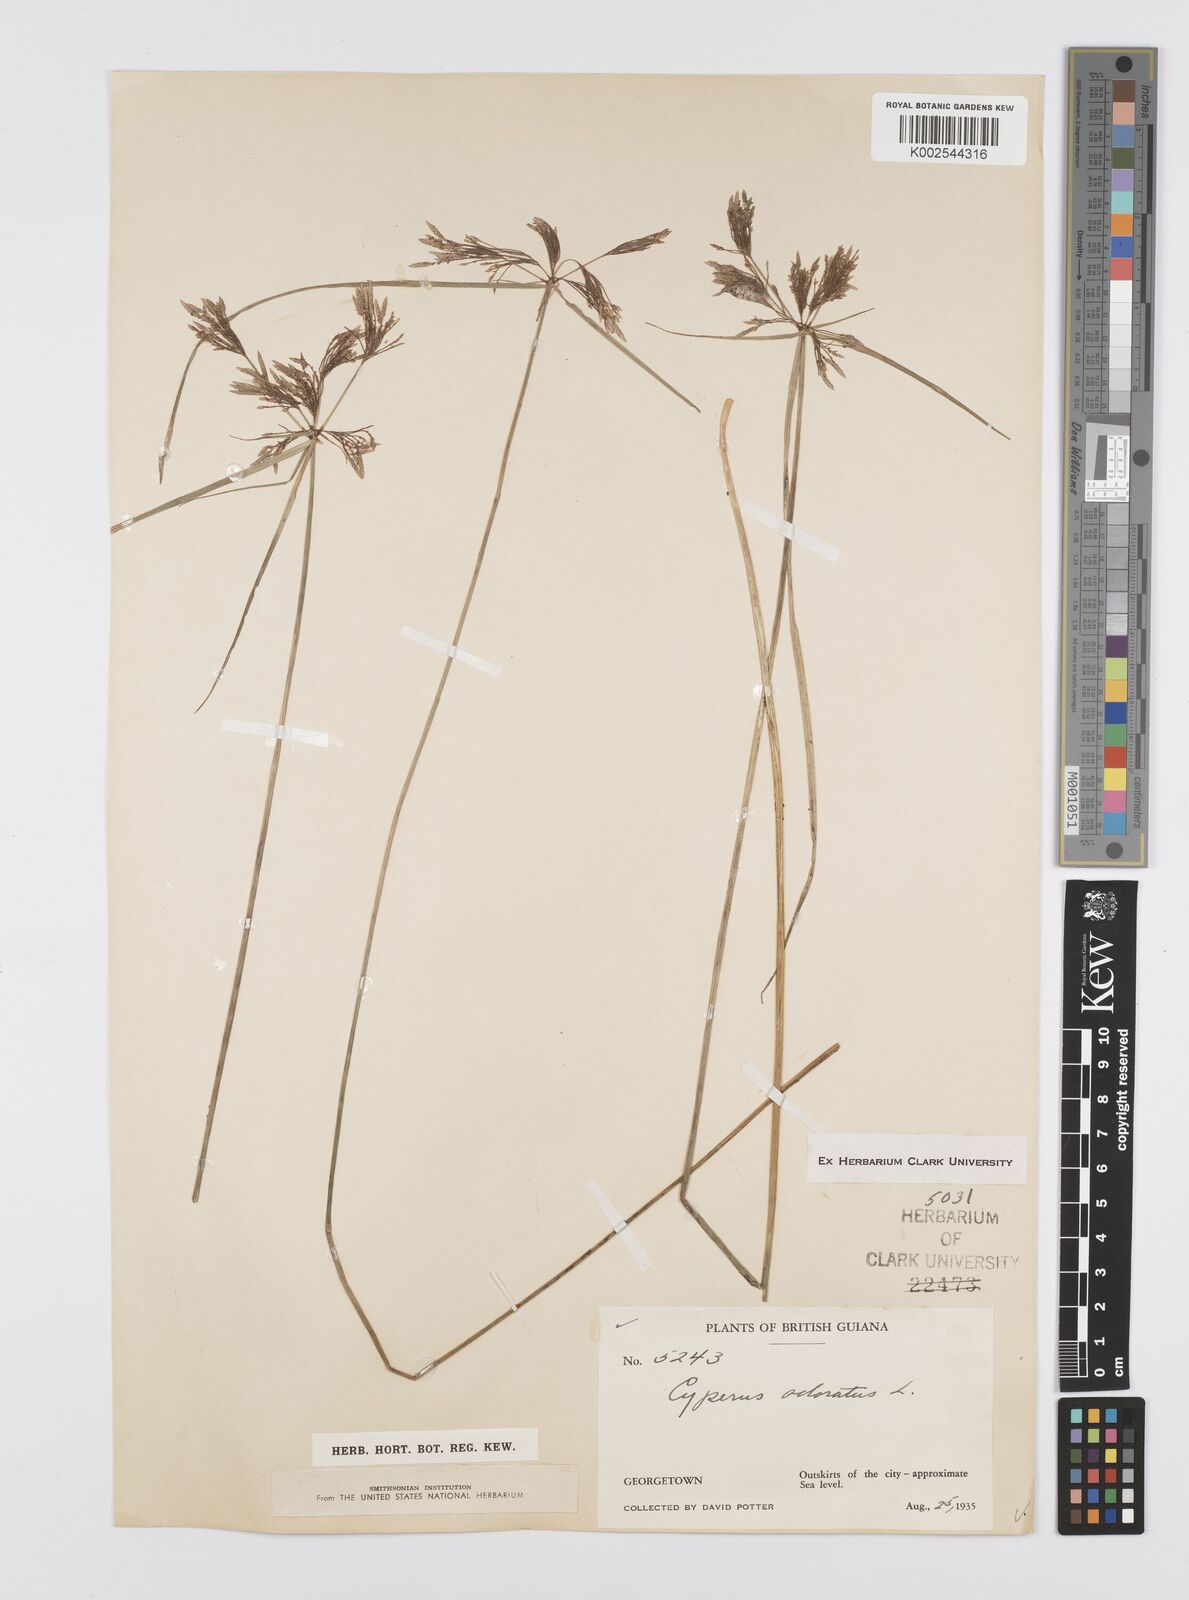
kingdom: Plantae
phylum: Tracheophyta
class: Liliopsida
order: Poales
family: Cyperaceae
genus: Cyperus
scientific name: Cyperus polystachyos
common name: Bunchy flat sedge
